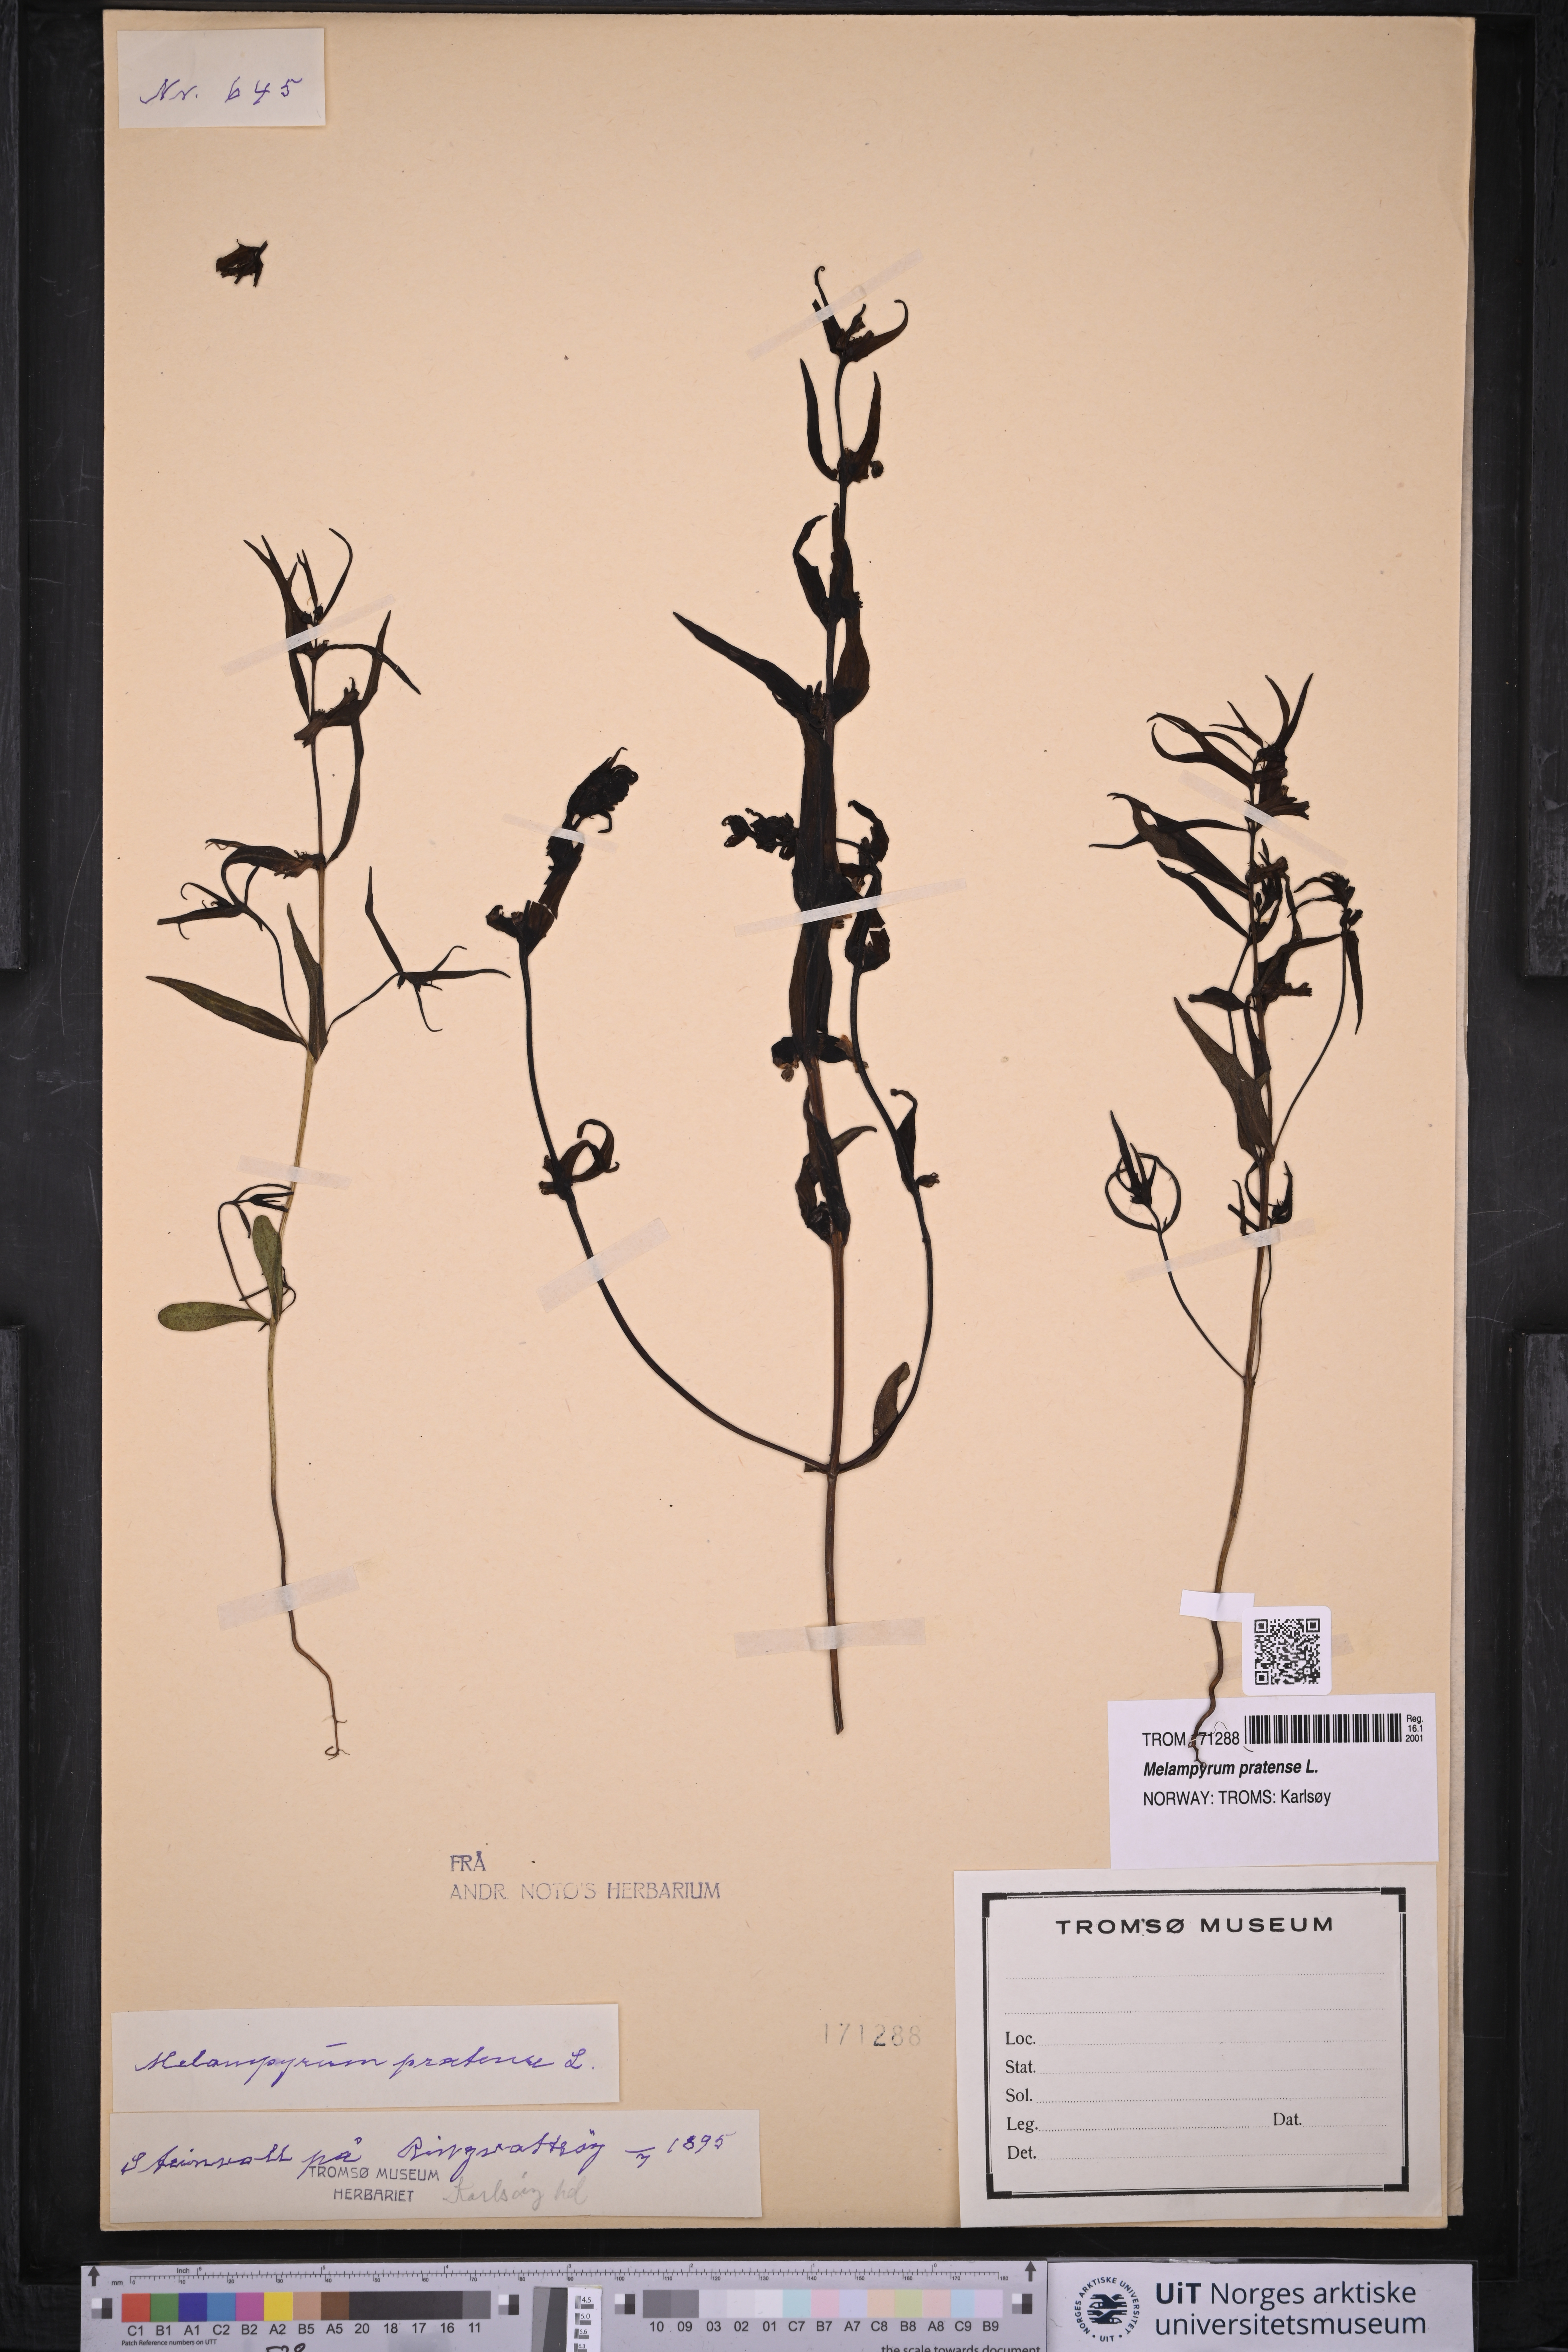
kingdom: Plantae
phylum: Tracheophyta
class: Magnoliopsida
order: Lamiales
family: Orobanchaceae
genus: Melampyrum
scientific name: Melampyrum pratense
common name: Common cow-wheat
